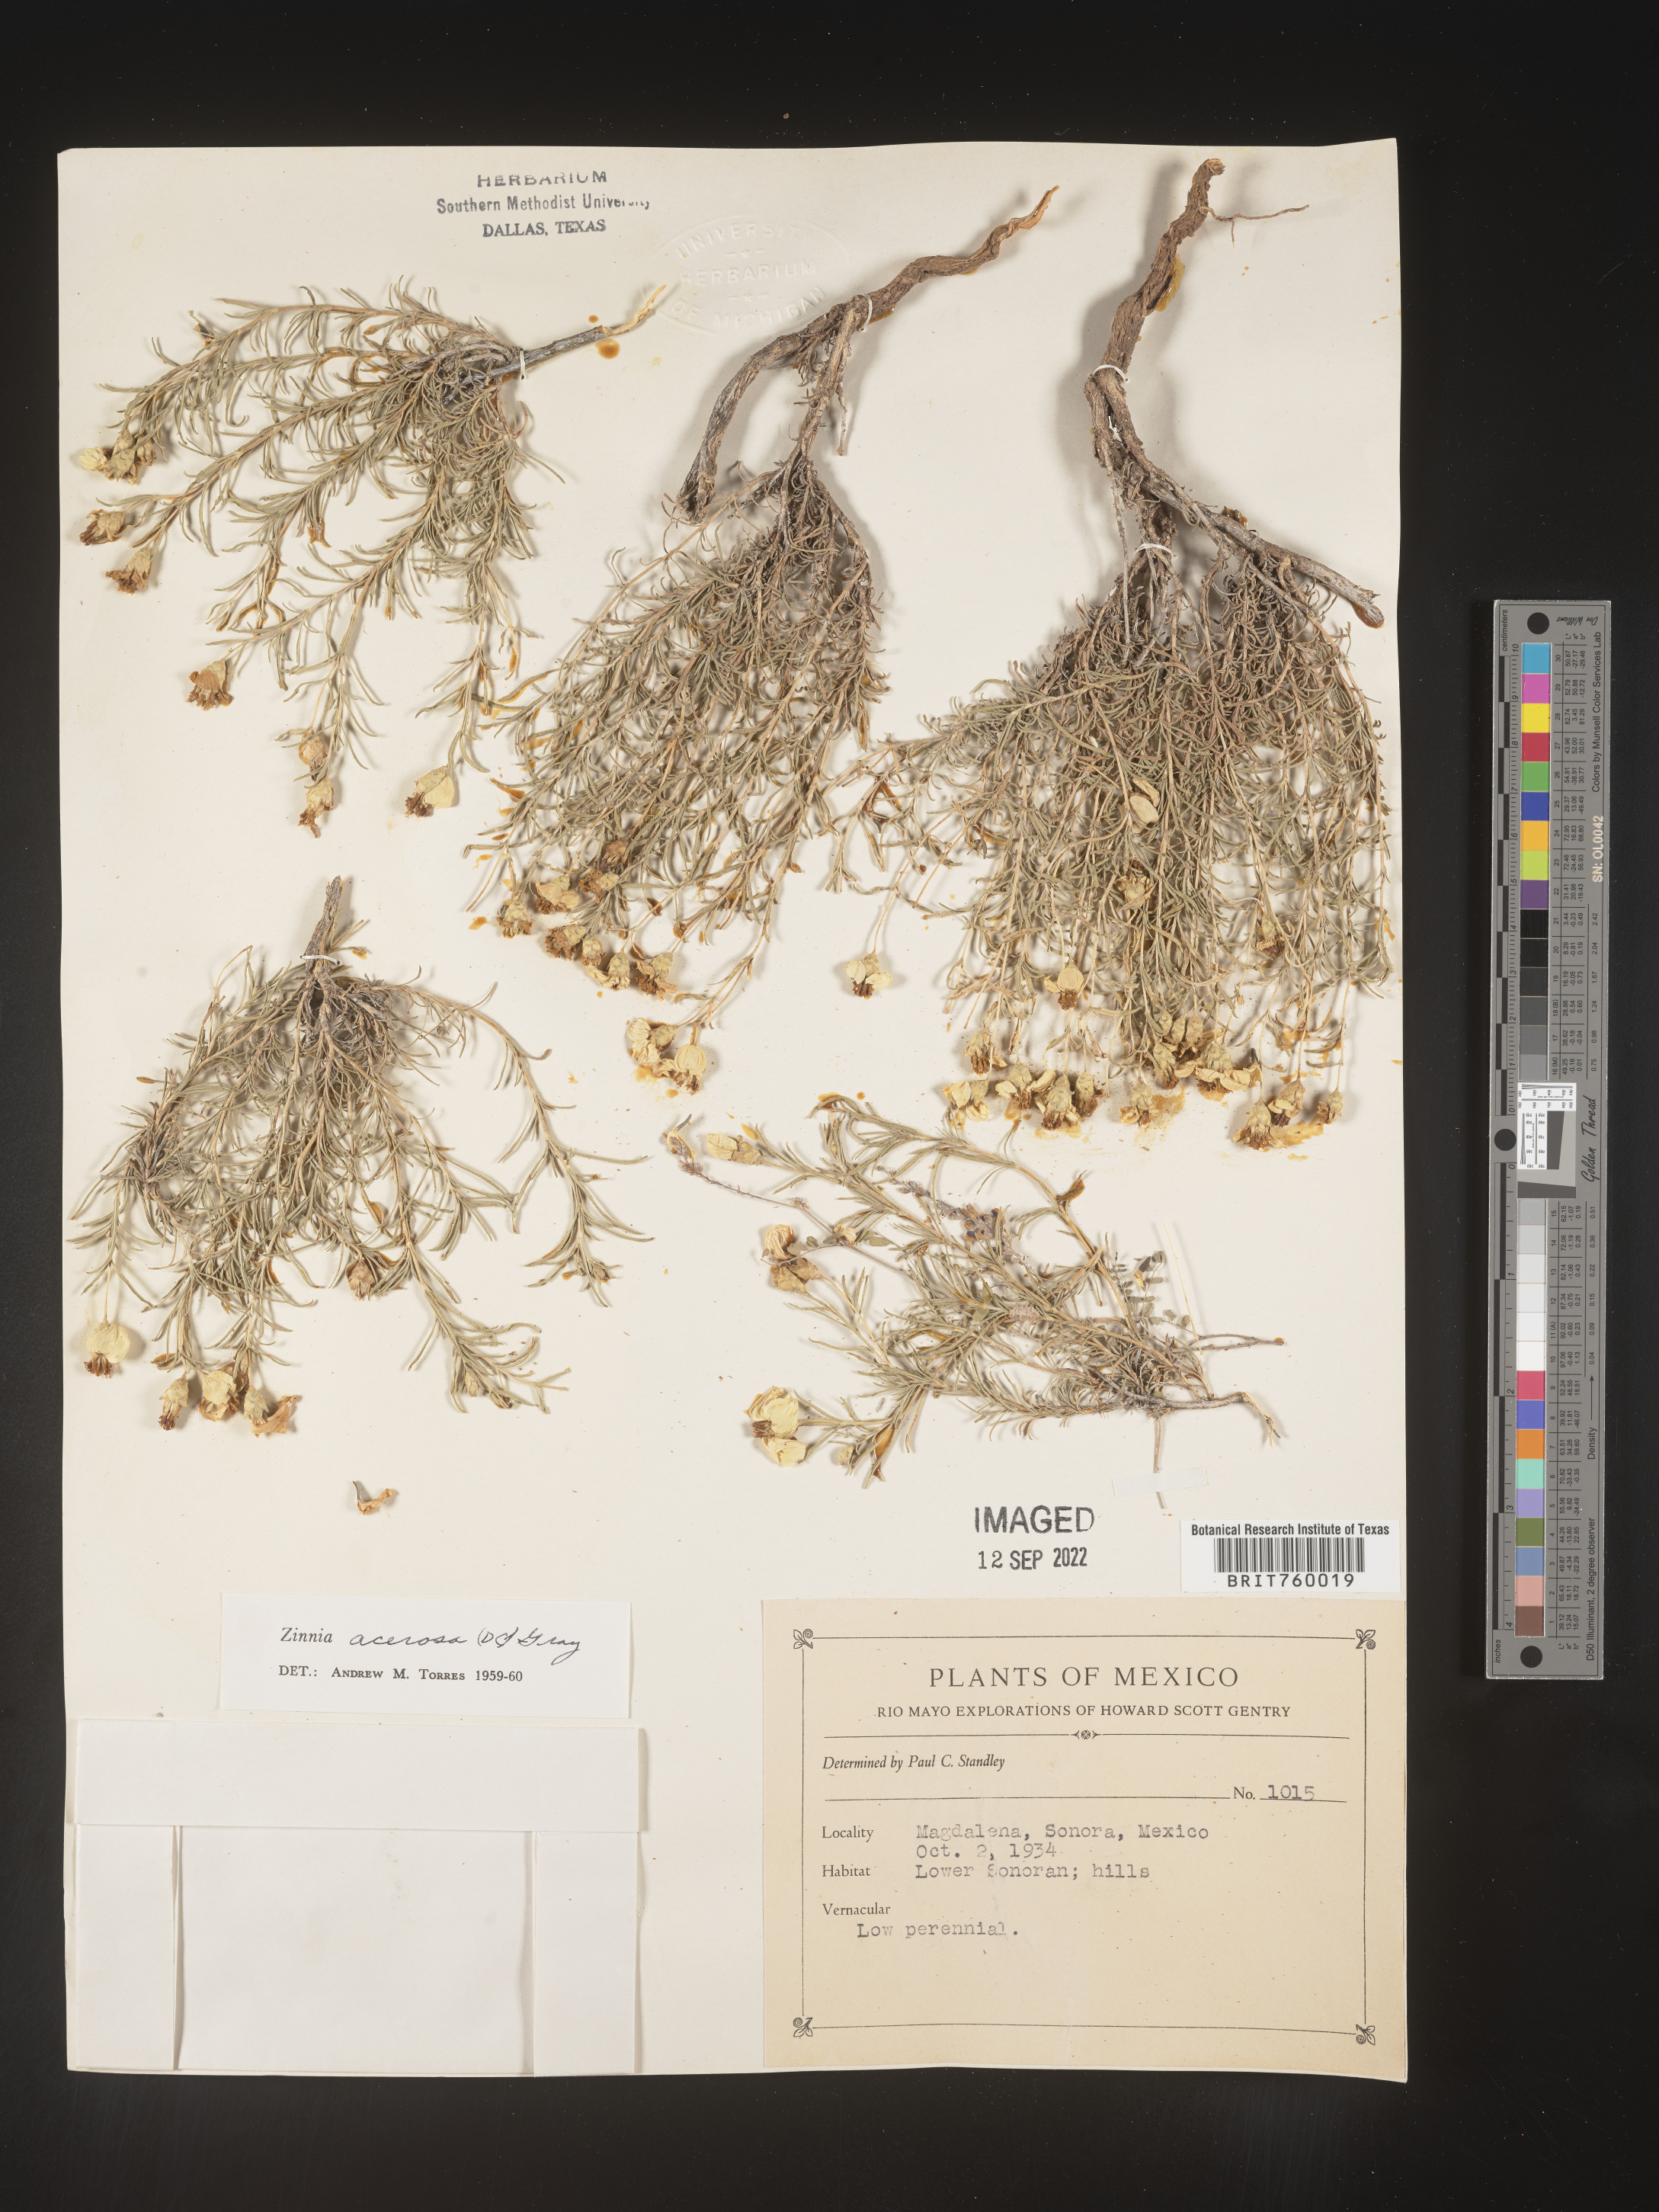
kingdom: Plantae
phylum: Tracheophyta
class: Magnoliopsida
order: Asterales
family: Asteraceae
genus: Zinnia
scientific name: Zinnia
